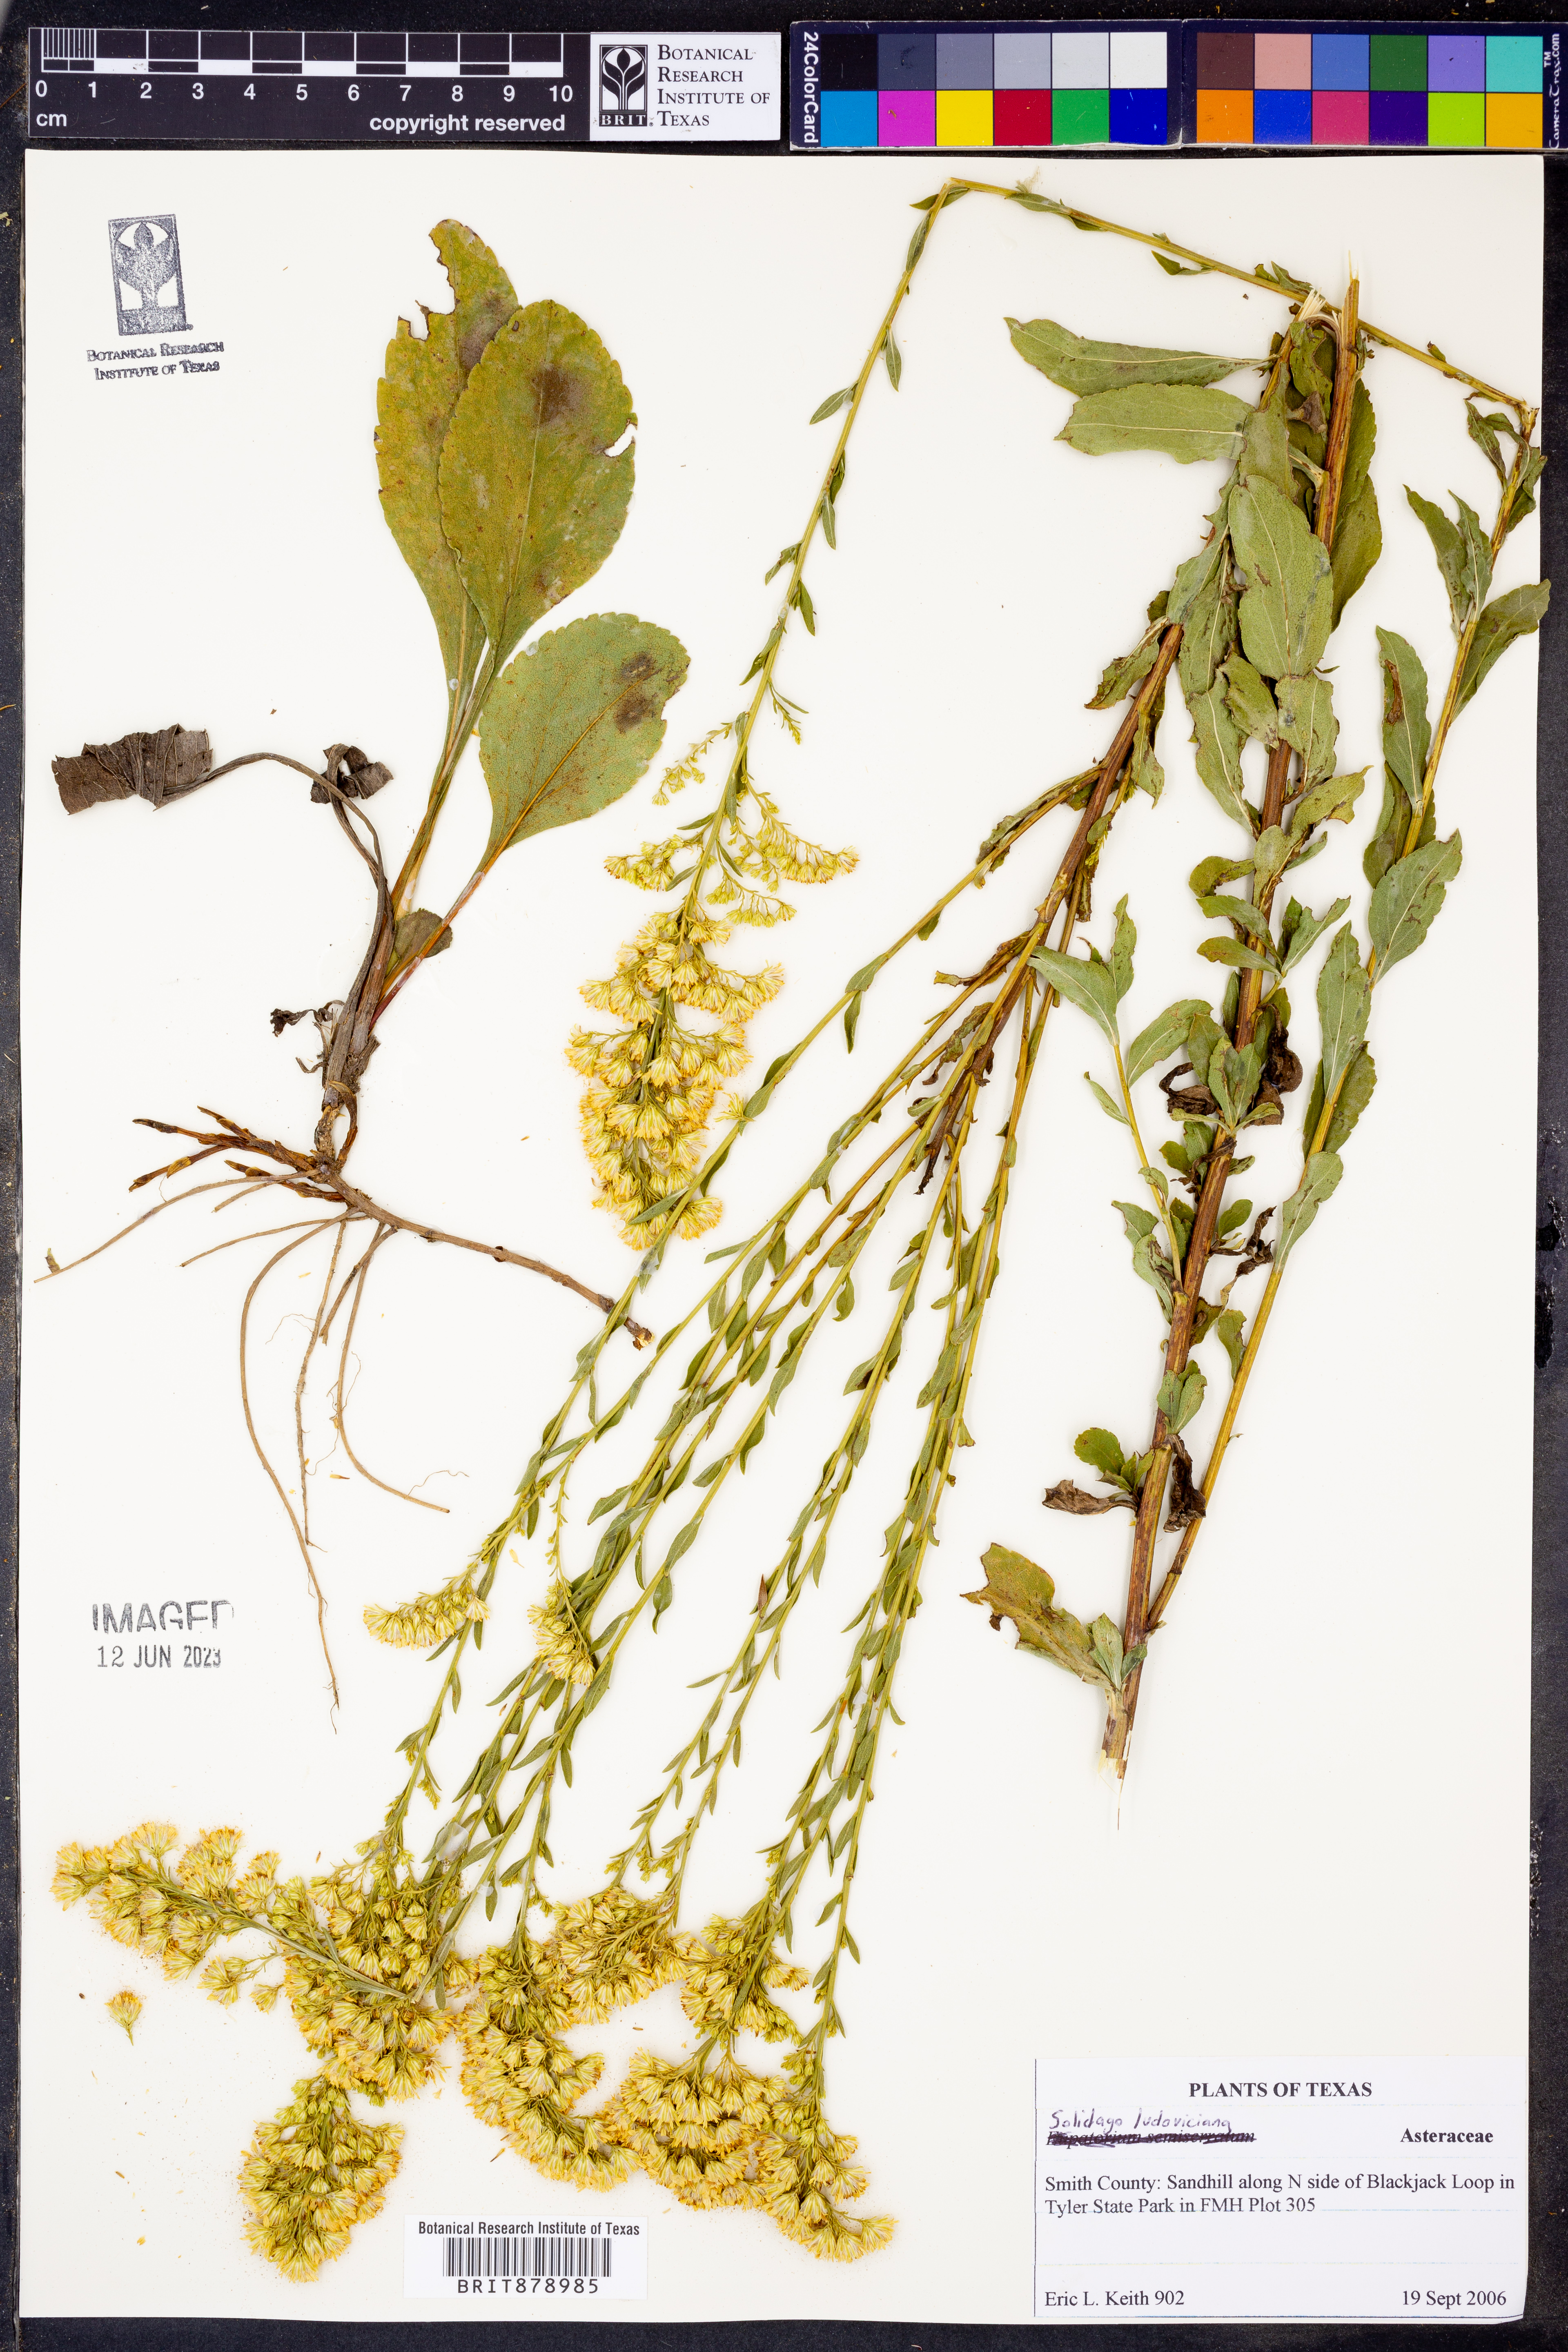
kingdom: Plantae
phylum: Tracheophyta
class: Magnoliopsida
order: Asterales
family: Asteraceae
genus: Solidago
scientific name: Solidago ludoviciana
